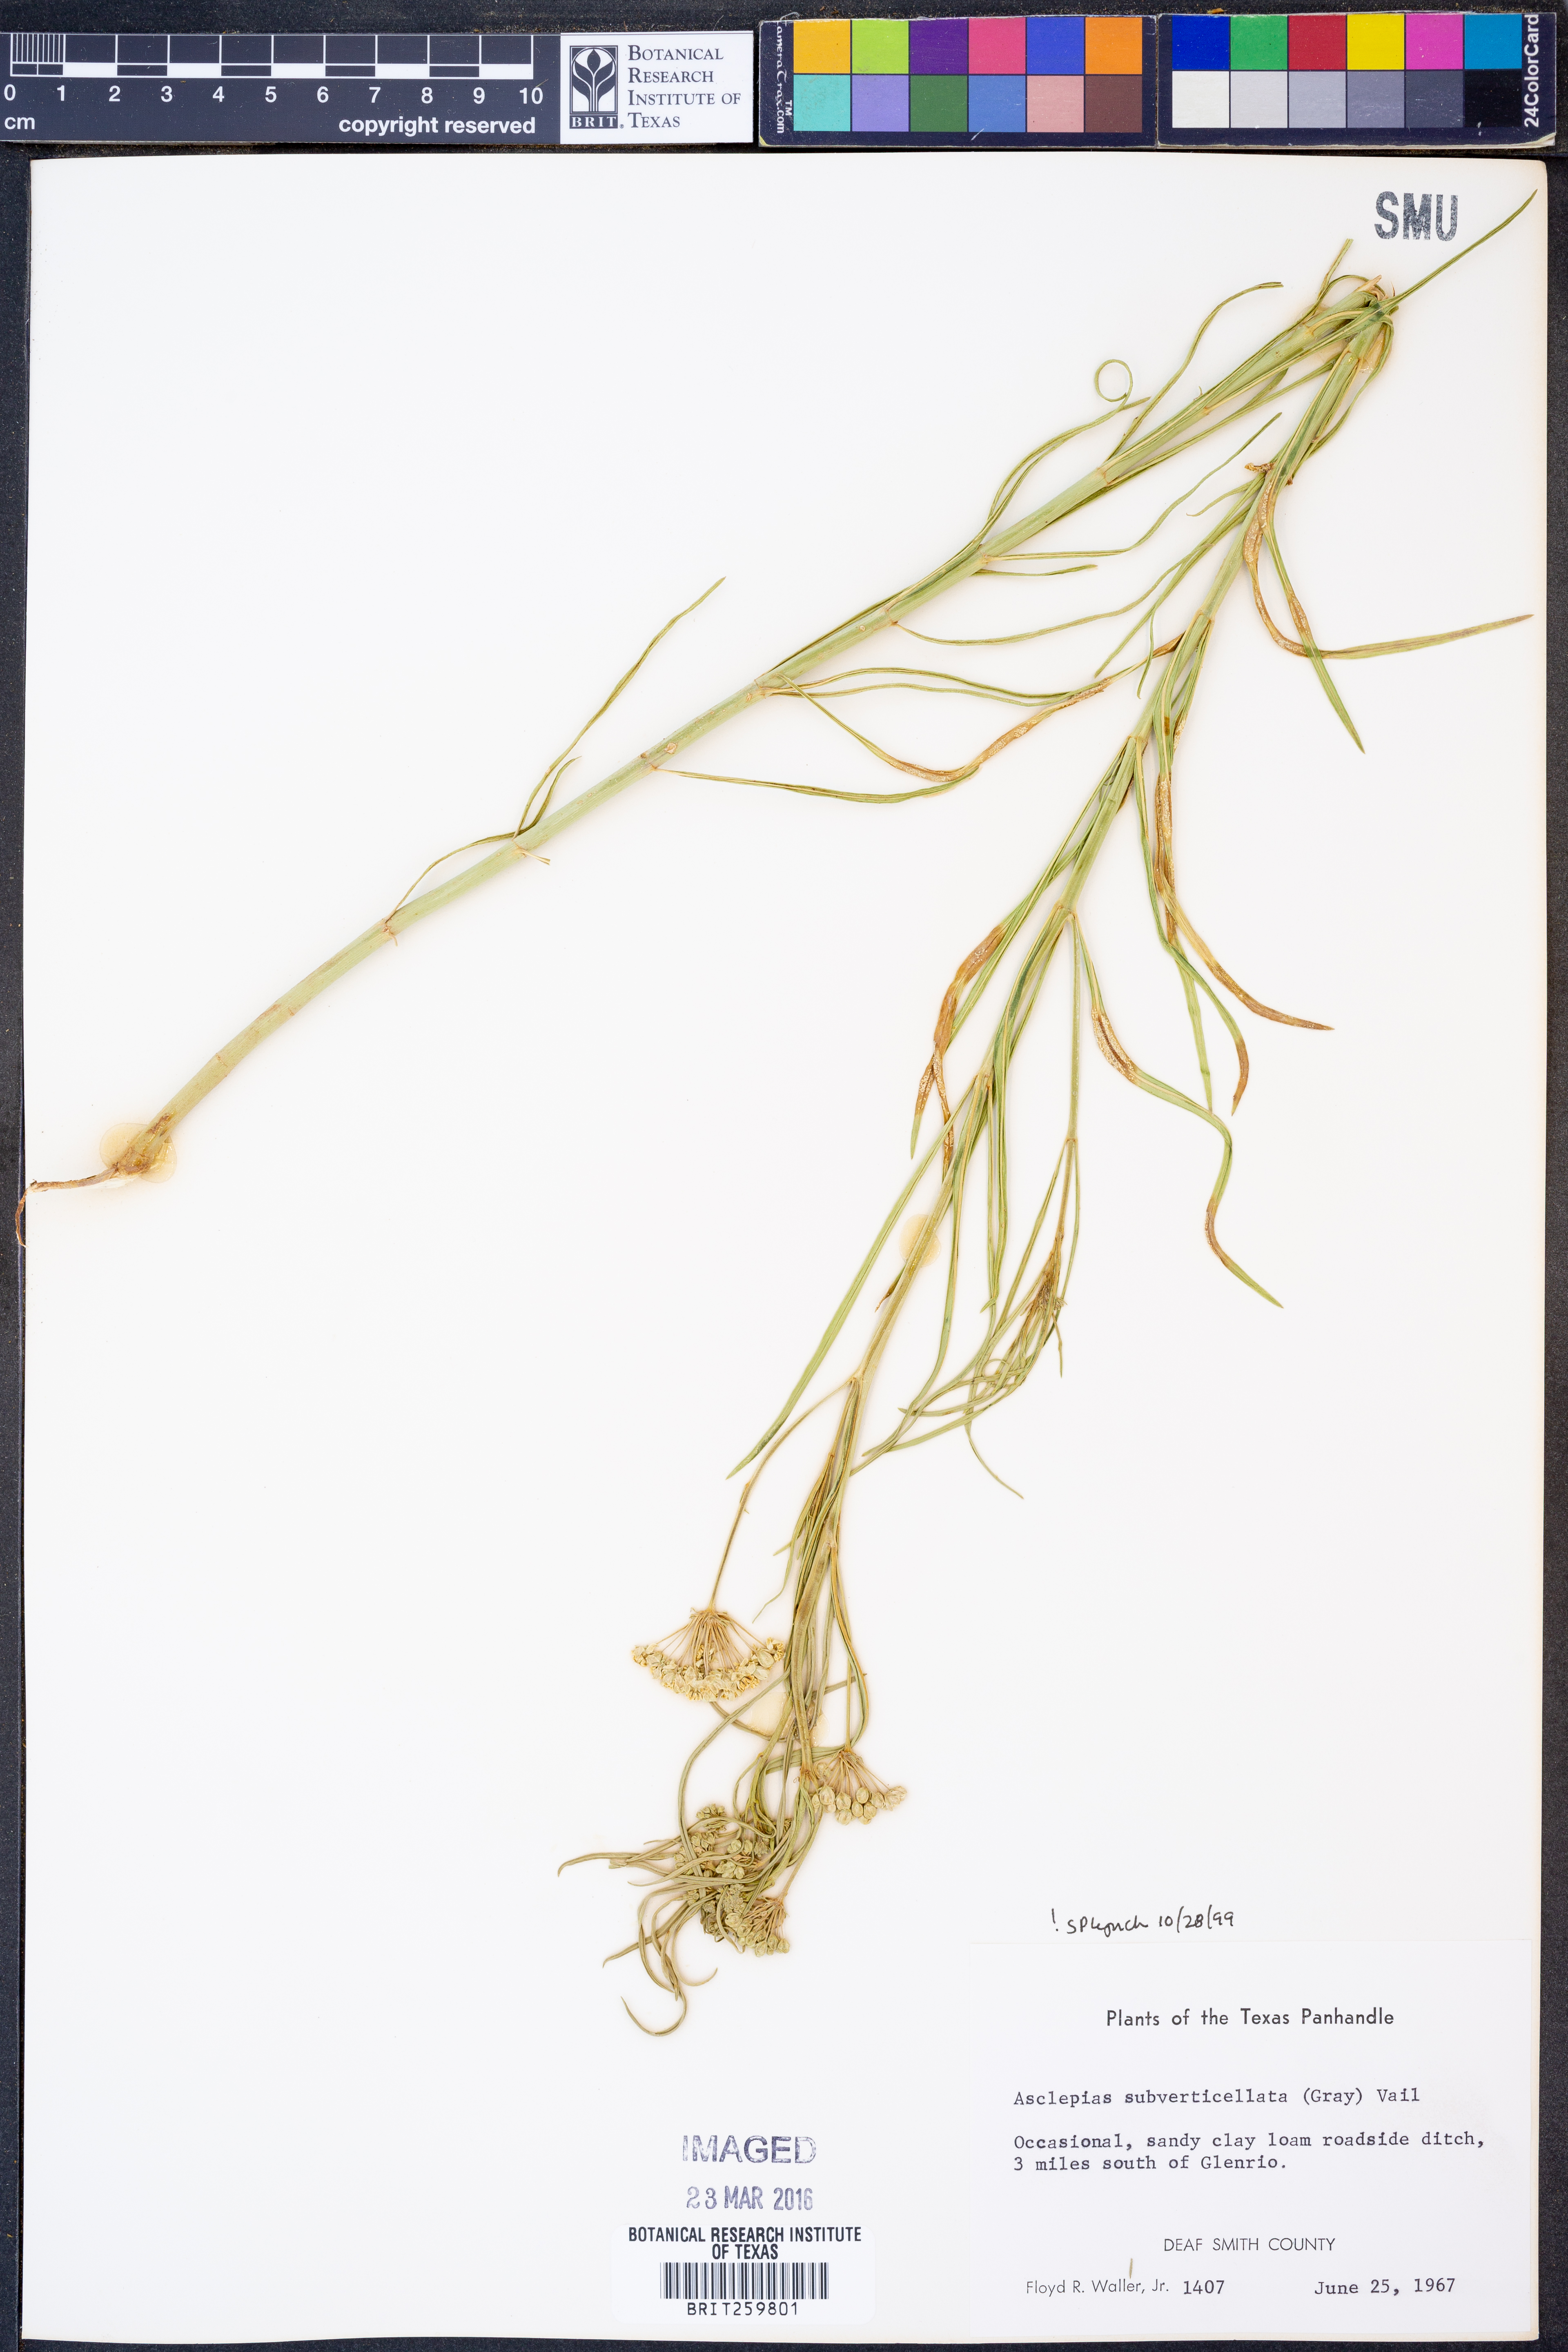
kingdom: Plantae
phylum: Tracheophyta
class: Magnoliopsida
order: Gentianales
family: Apocynaceae
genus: Asclepias
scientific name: Asclepias subverticillata
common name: Horsetail milkweed
